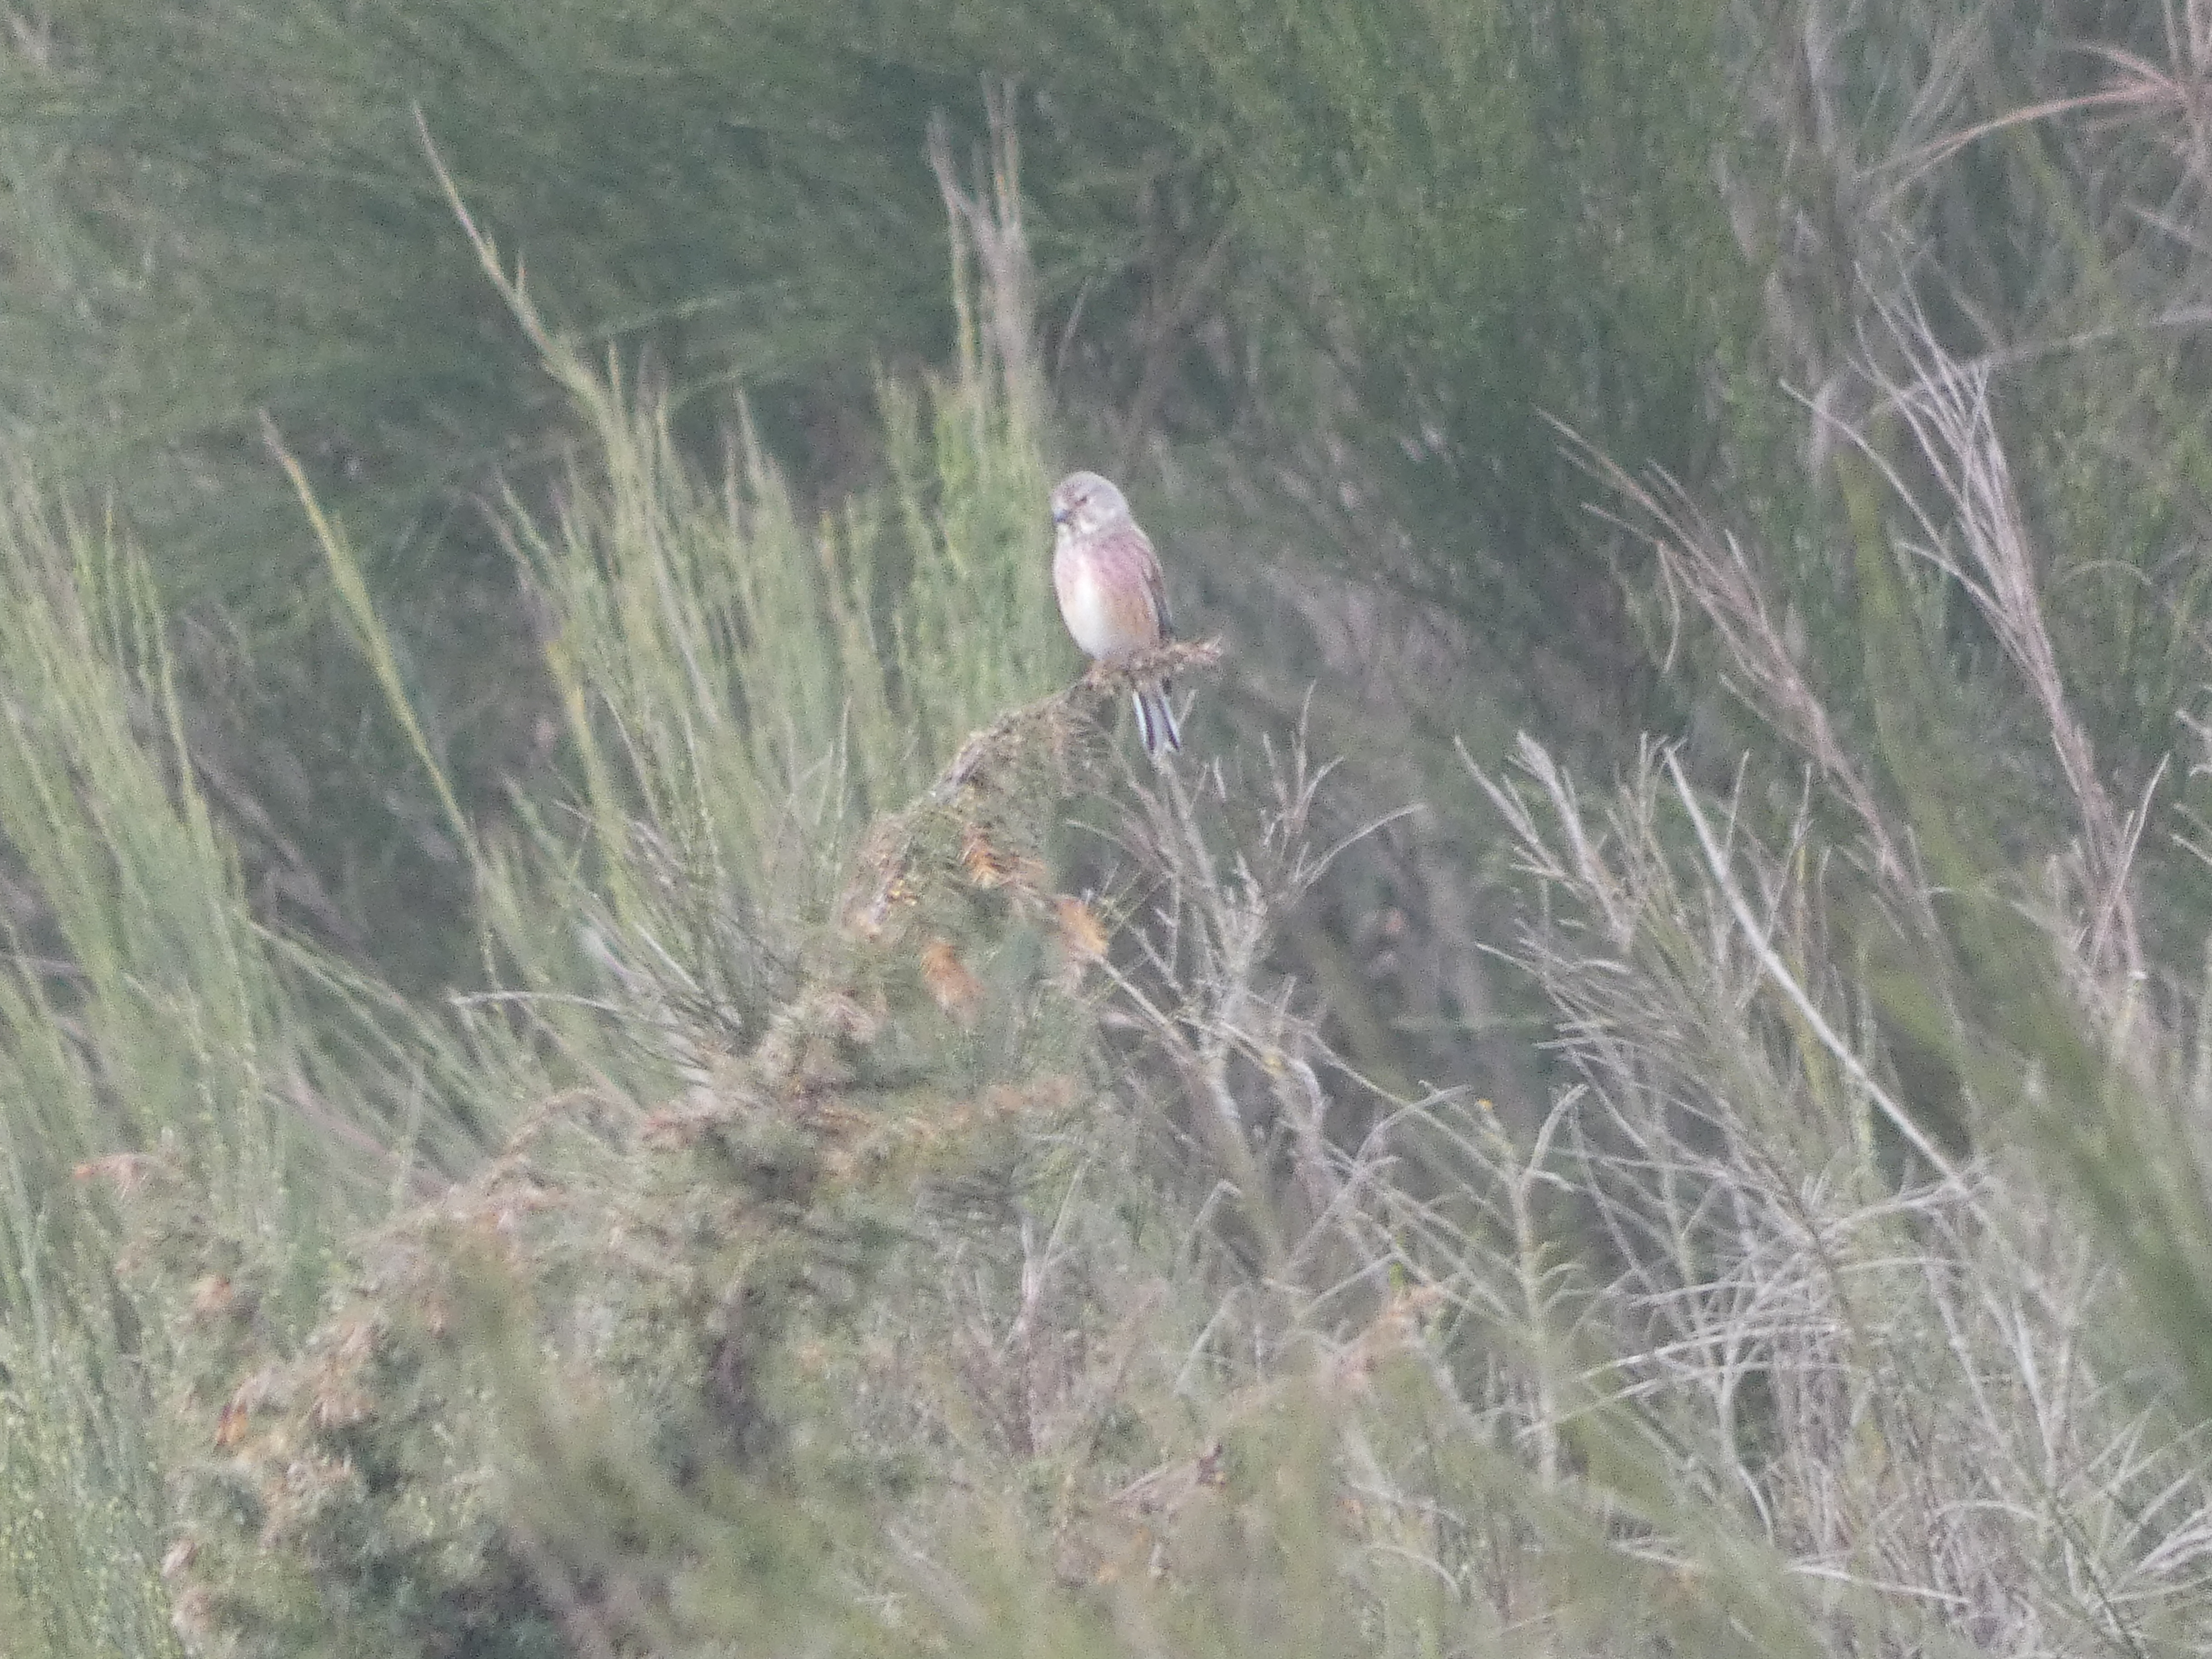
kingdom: Animalia
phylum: Chordata
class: Aves
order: Passeriformes
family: Fringillidae
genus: Linaria
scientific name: Linaria cannabina
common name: Tornirisk
